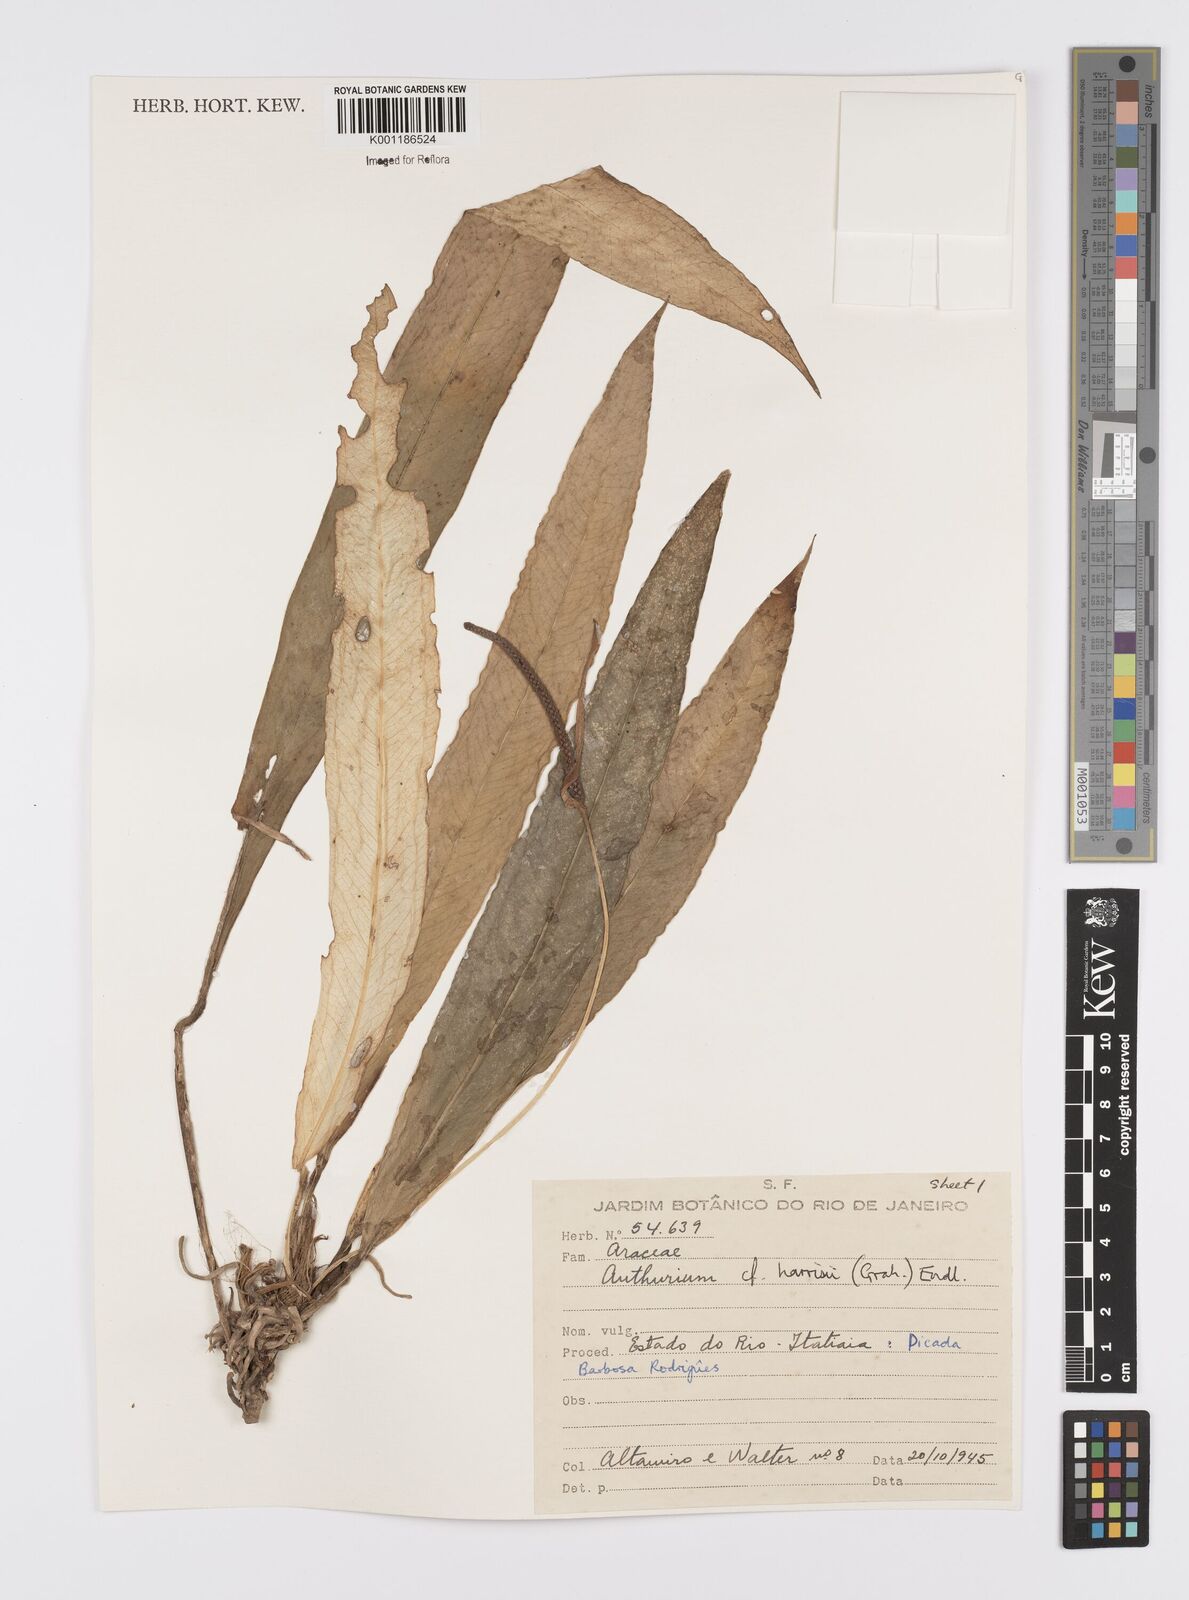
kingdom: Plantae
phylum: Tracheophyta
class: Liliopsida
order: Alismatales
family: Araceae
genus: Anthurium
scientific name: Anthurium harrisii
